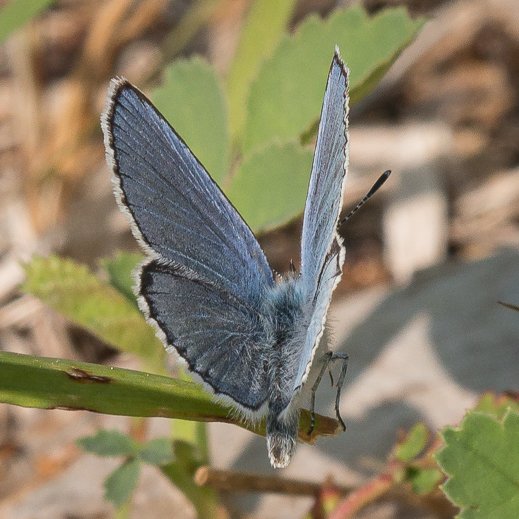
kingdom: Animalia
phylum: Arthropoda
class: Insecta
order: Lepidoptera
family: Lycaenidae
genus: Lycaeides
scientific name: Lycaeides idas
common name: Northern Blue
